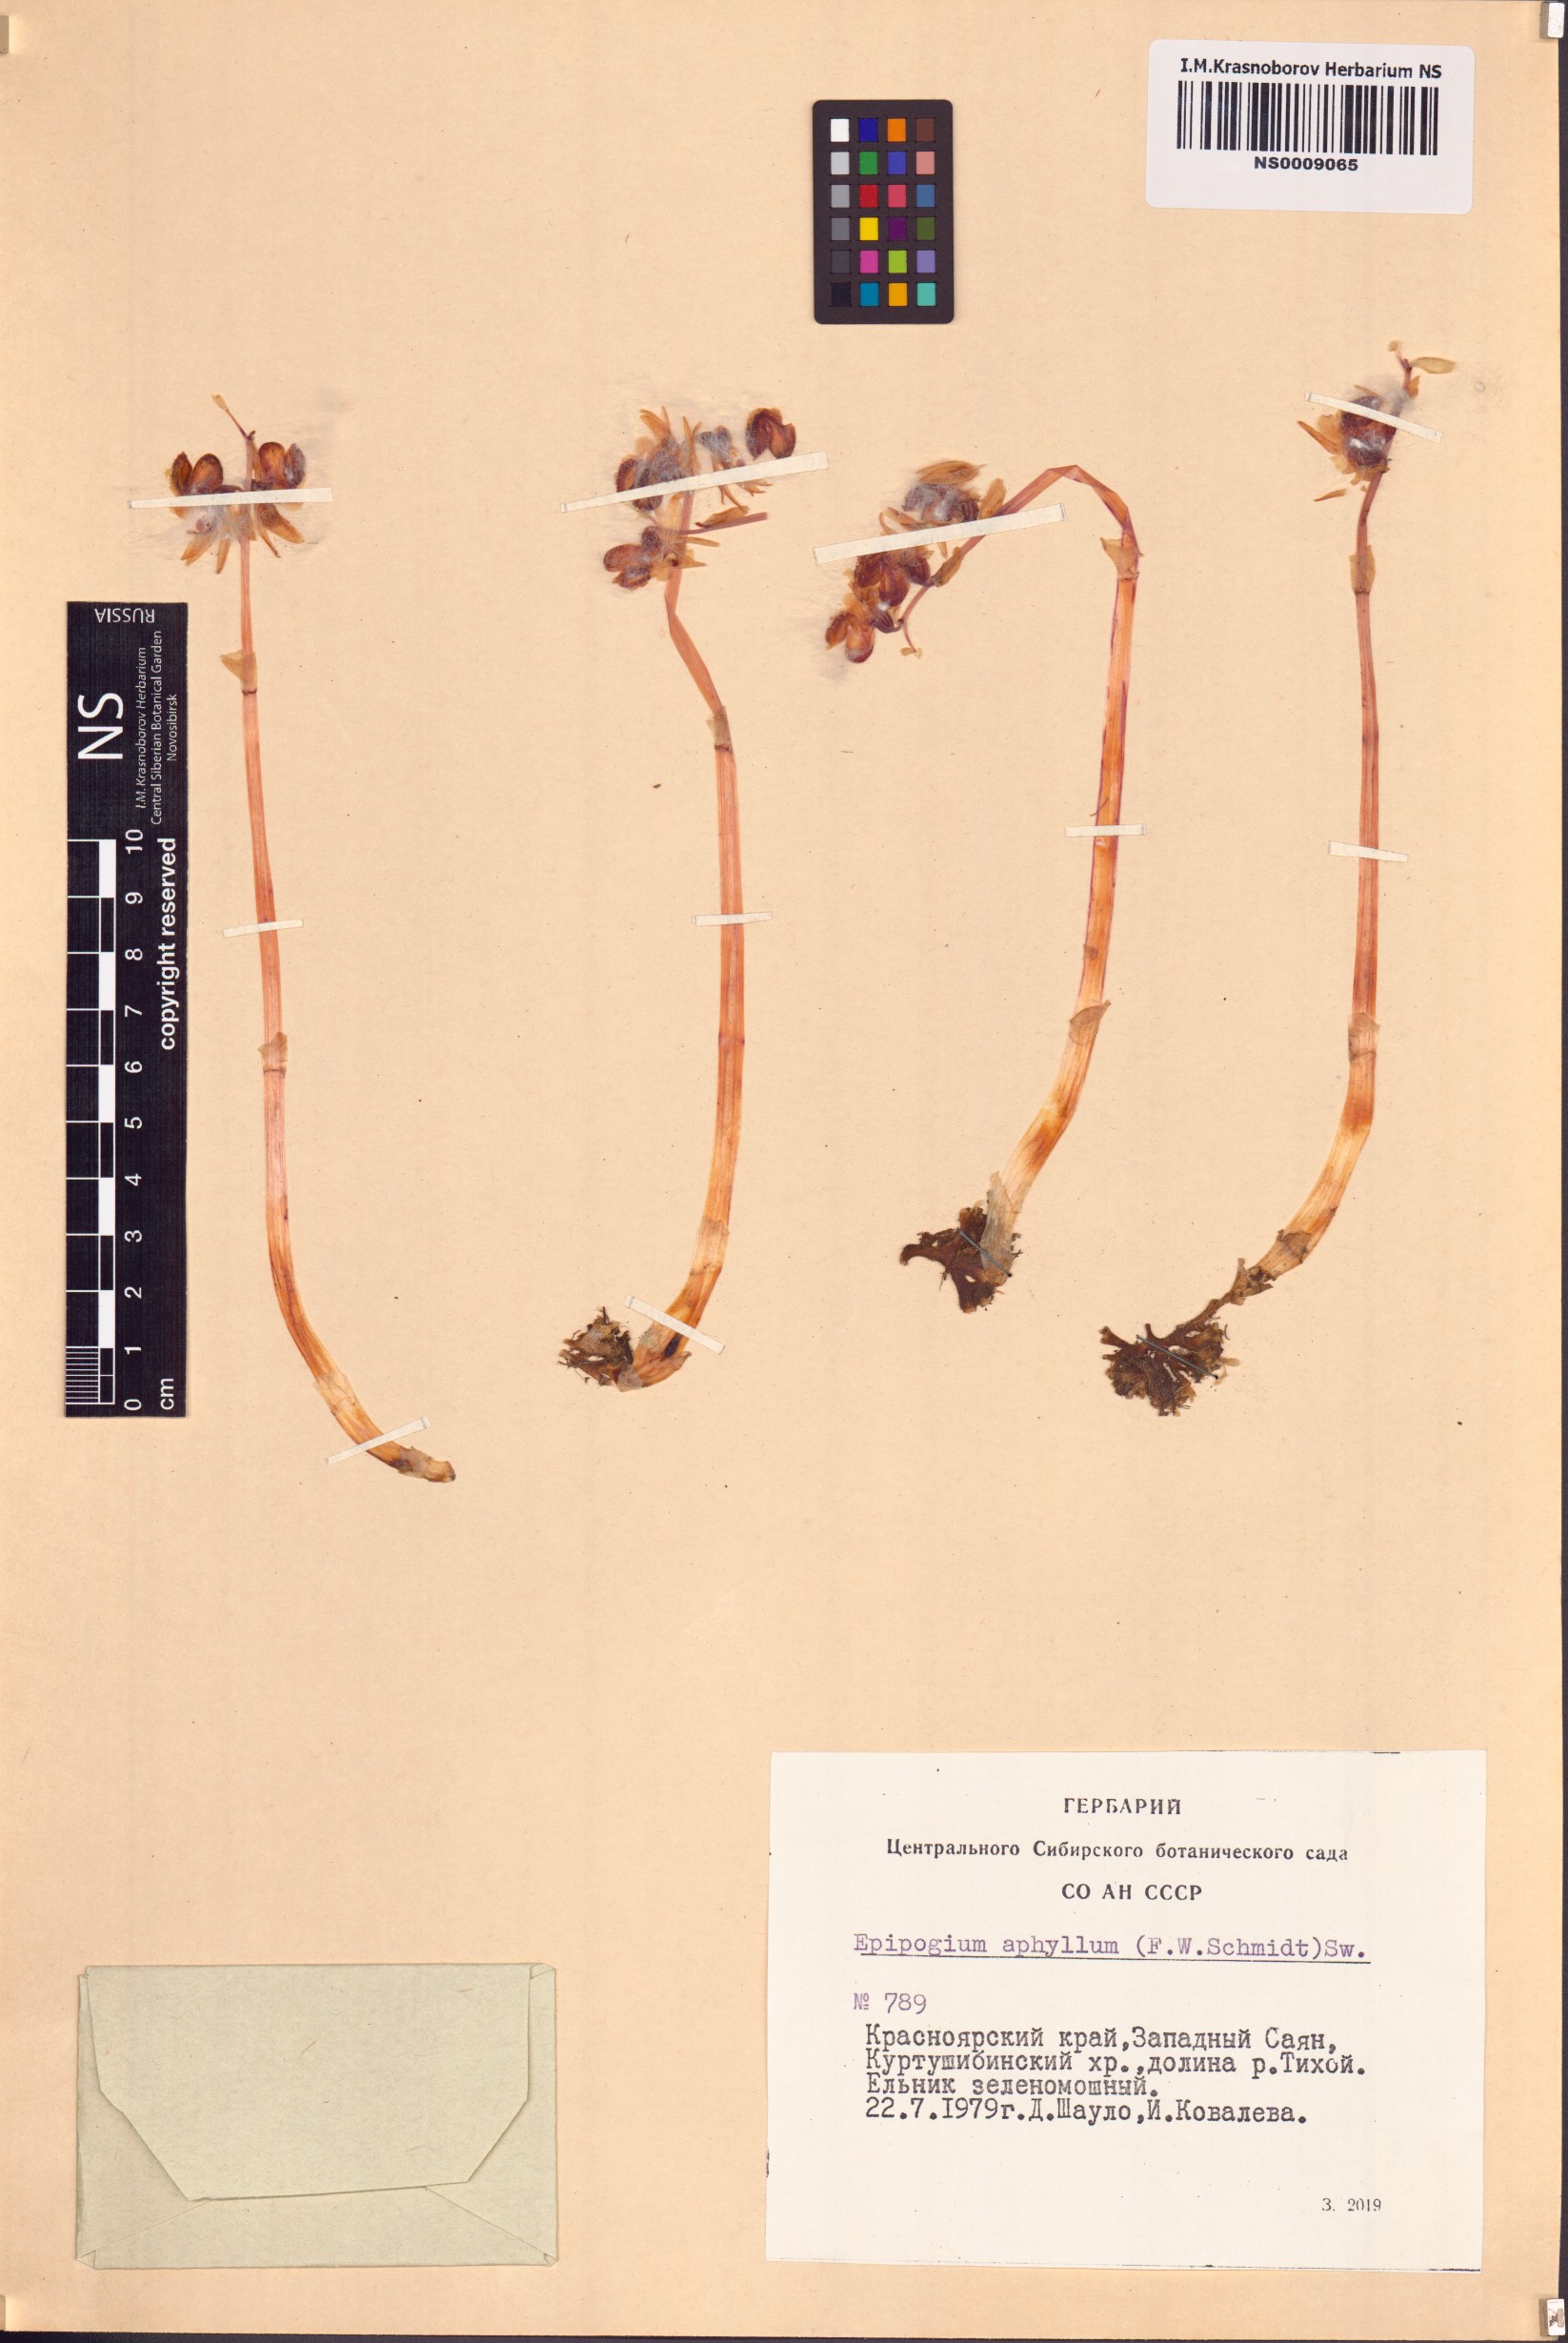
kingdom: Plantae
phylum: Tracheophyta
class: Liliopsida
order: Asparagales
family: Orchidaceae
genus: Epipogium
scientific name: Epipogium aphyllum
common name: Ghost orchid
